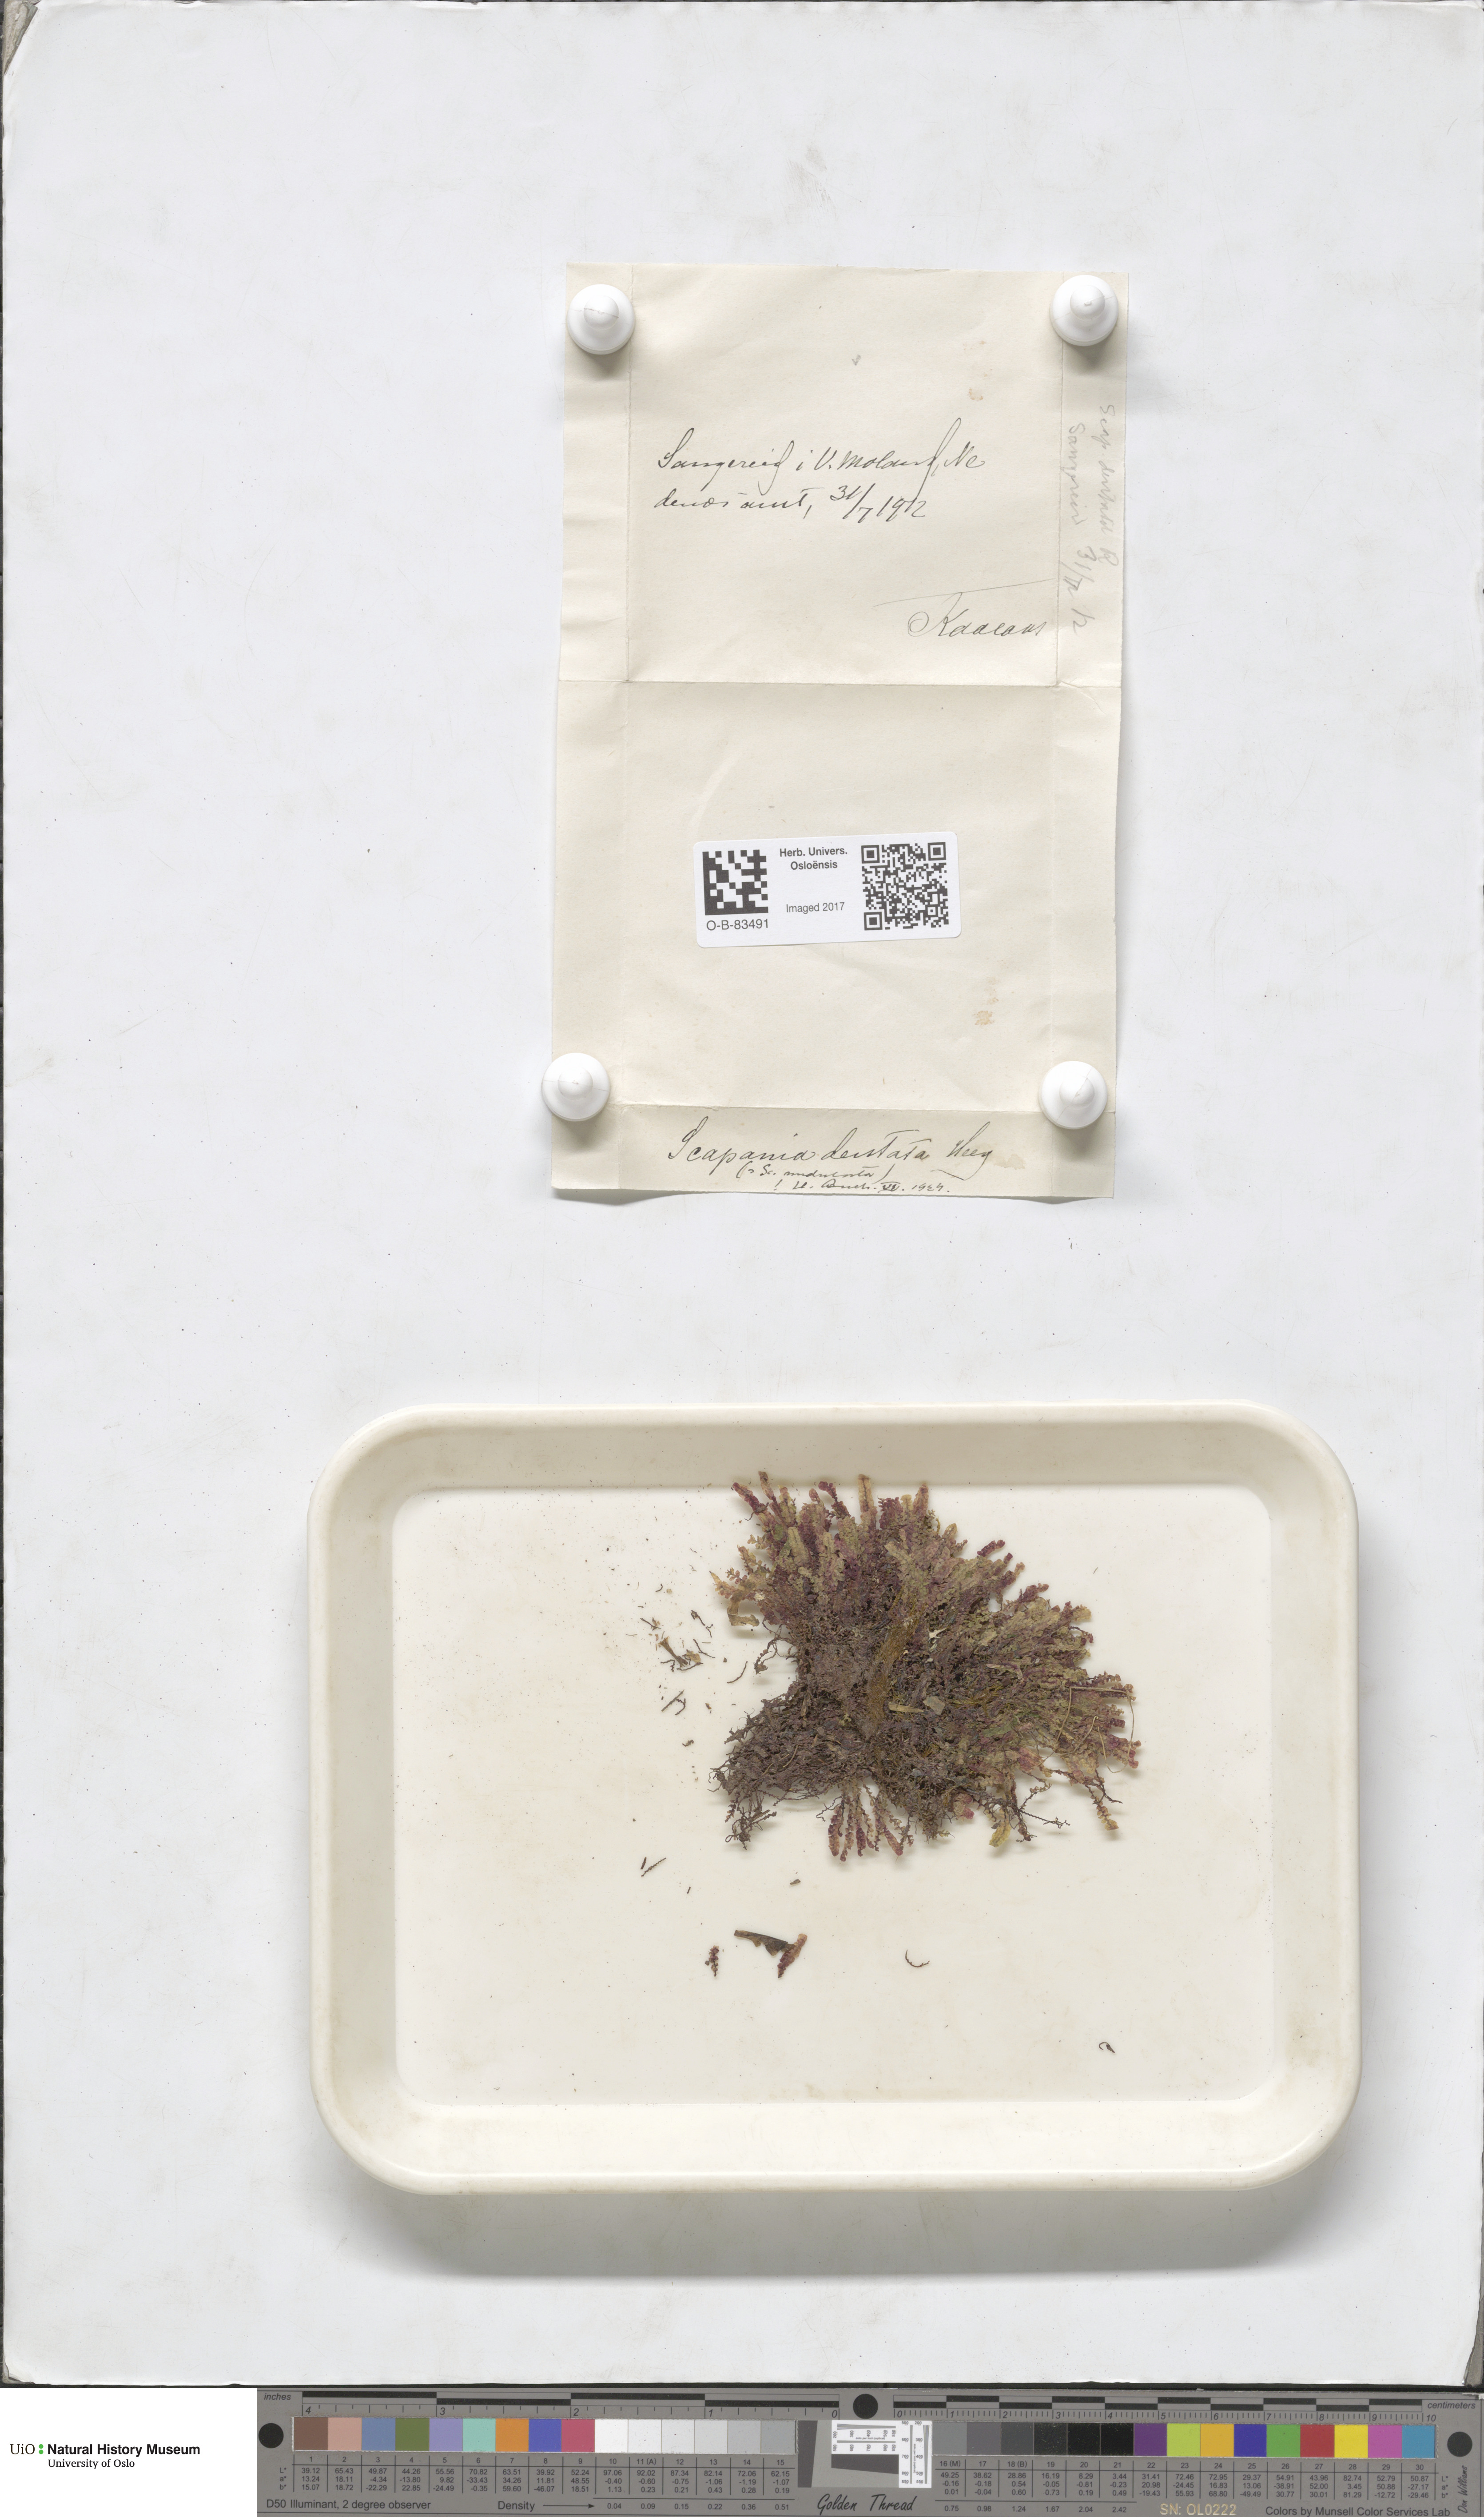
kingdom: Plantae
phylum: Marchantiophyta
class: Jungermanniopsida
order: Jungermanniales
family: Scapaniaceae
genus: Scapania
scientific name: Scapania undulata
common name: Water earwort
